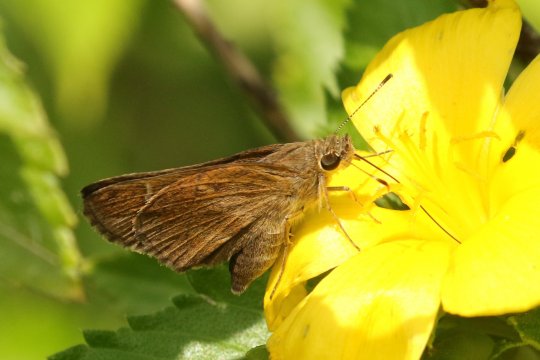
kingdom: Animalia
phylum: Arthropoda
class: Insecta
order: Lepidoptera
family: Hesperiidae
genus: Lerema
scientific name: Lerema accius
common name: Clouded Skipper
